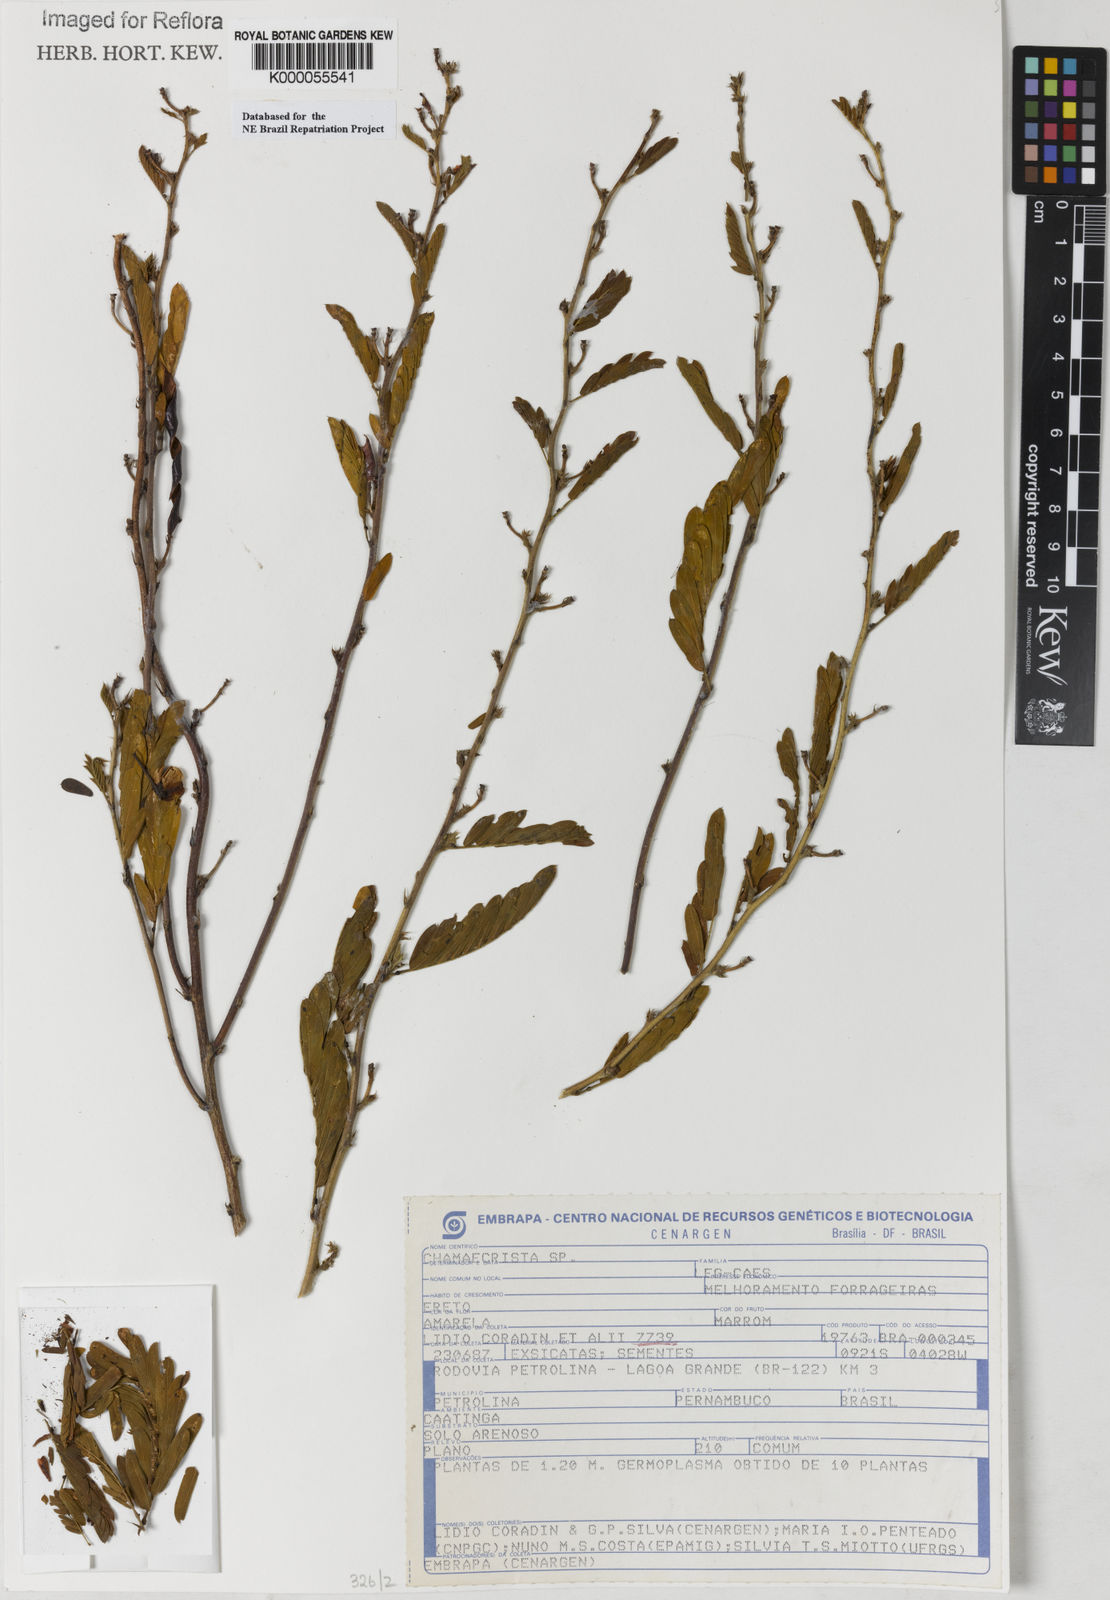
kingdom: Plantae
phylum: Tracheophyta
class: Magnoliopsida
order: Fabales
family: Fabaceae
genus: Chamaecrista
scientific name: Chamaecrista
